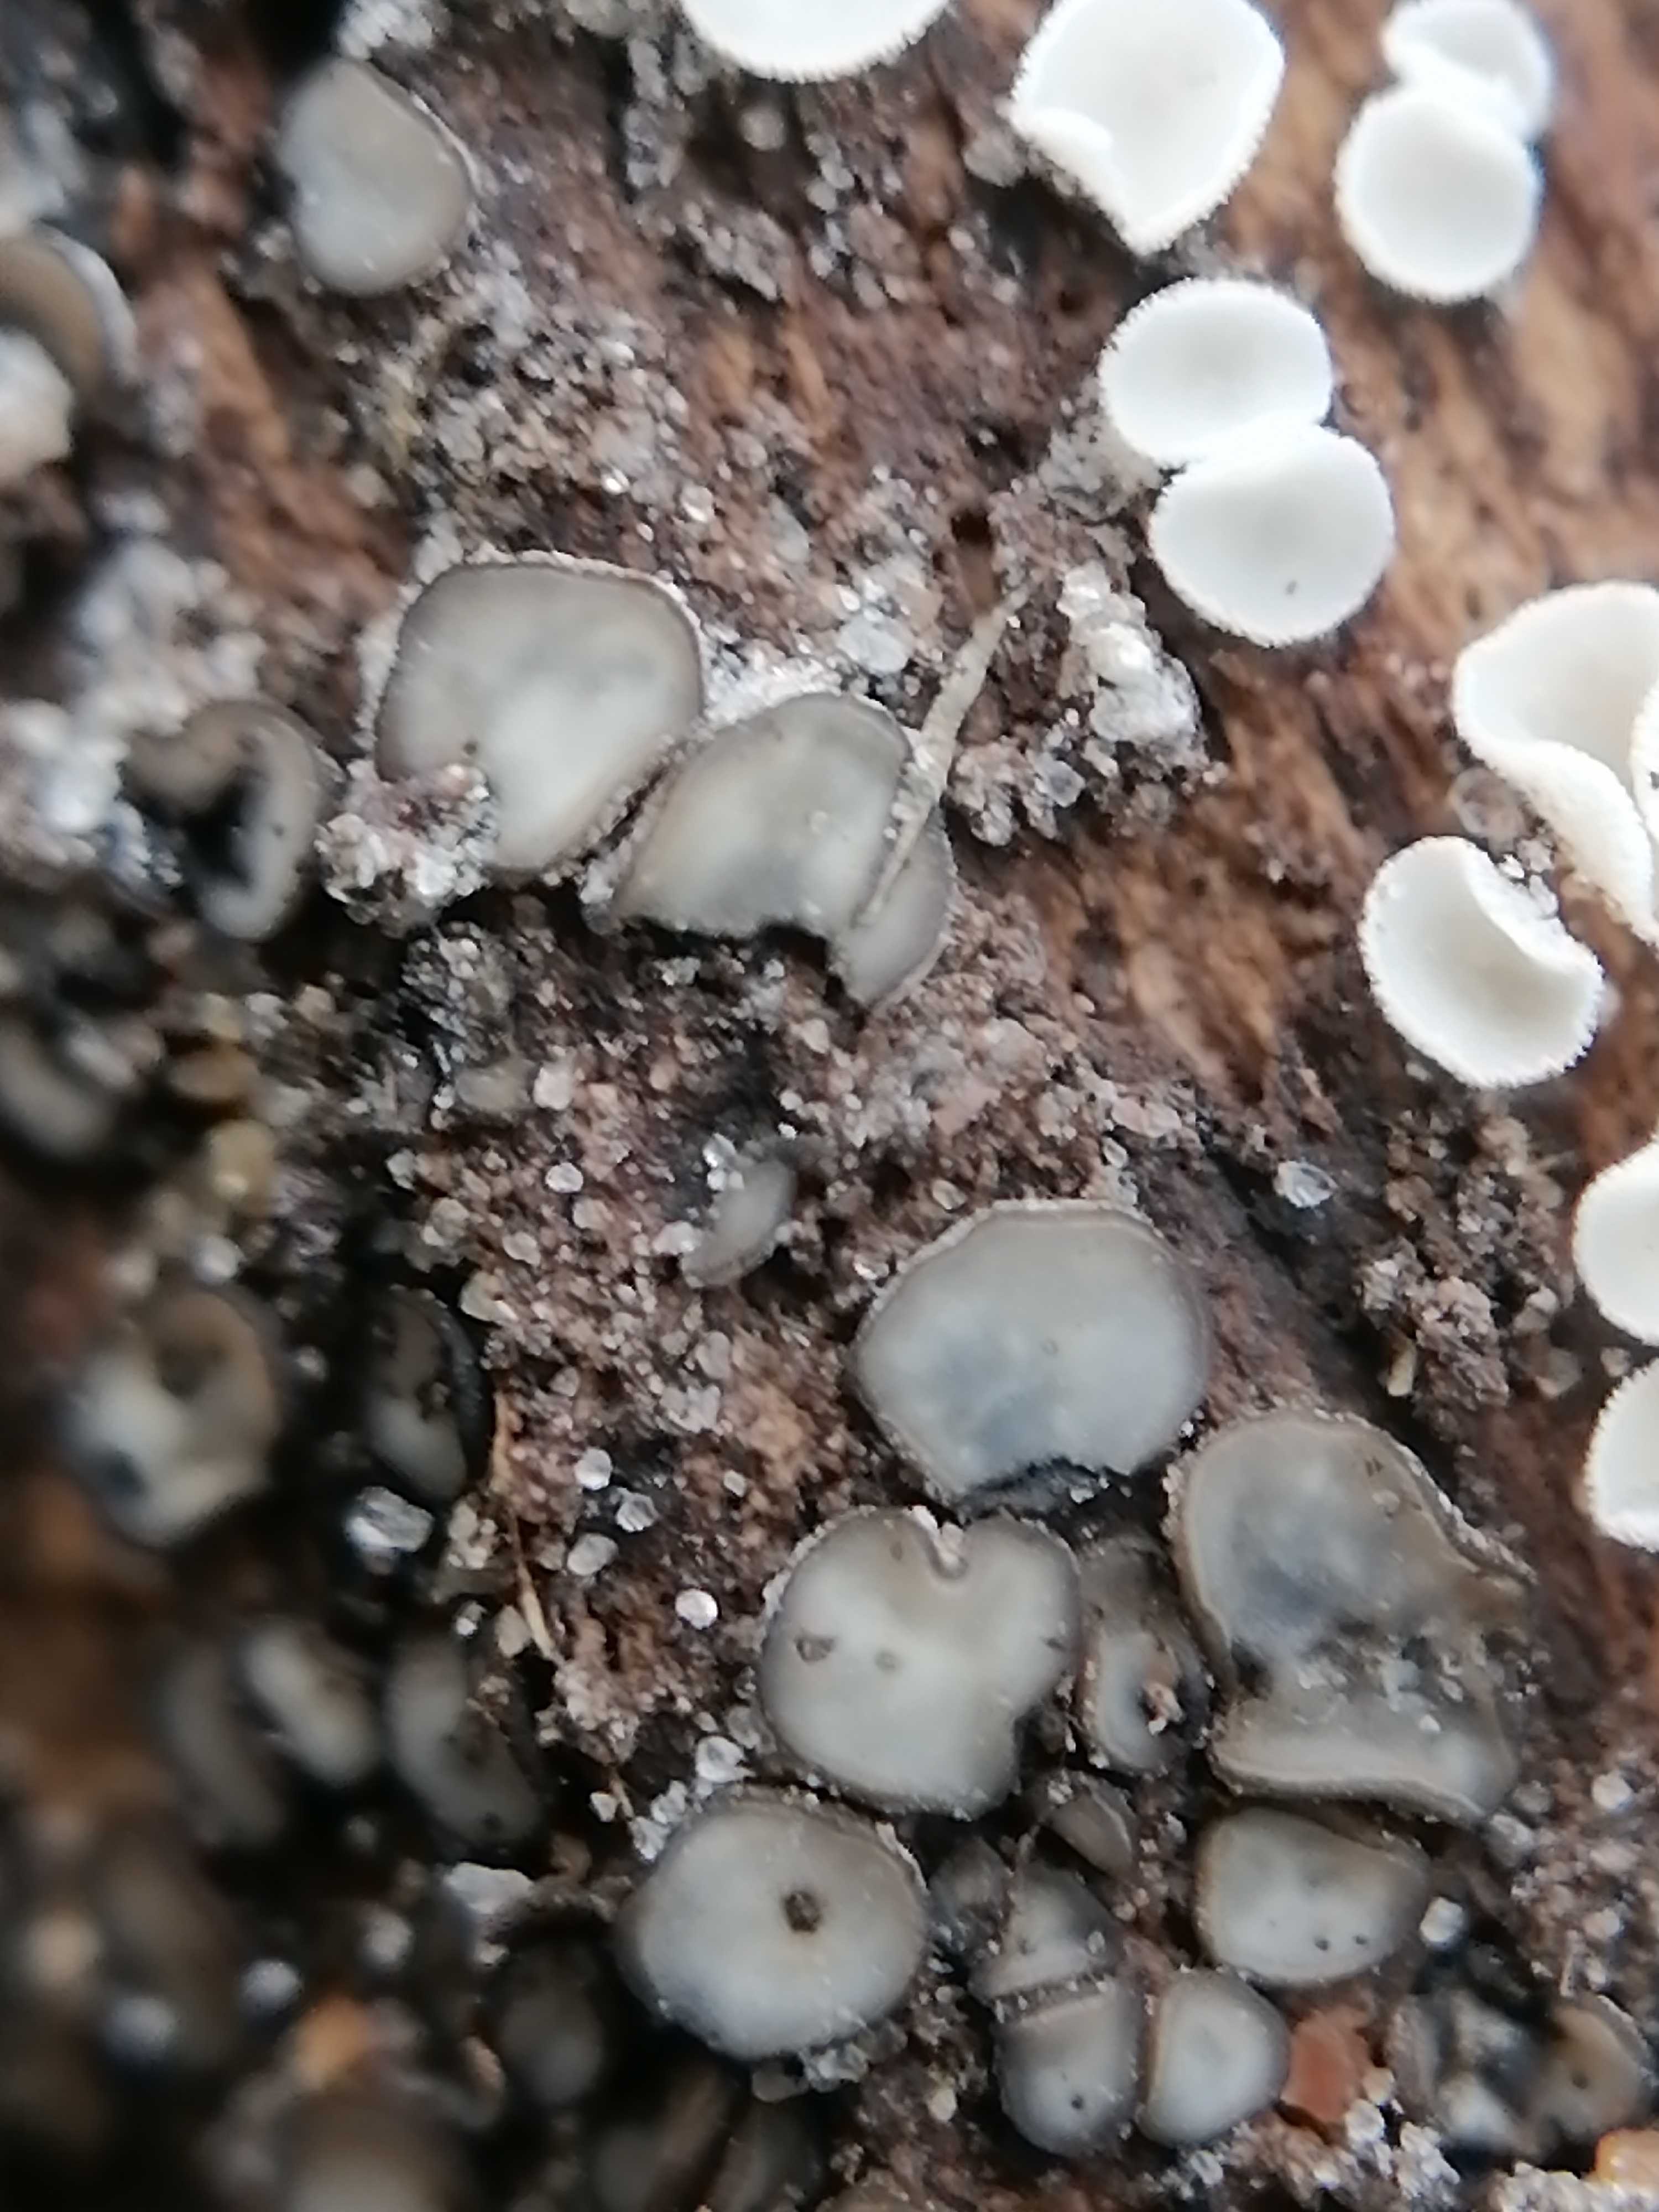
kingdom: Fungi
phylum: Ascomycota
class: Leotiomycetes
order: Helotiales
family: Mollisiaceae
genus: Mollisia
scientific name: Mollisia
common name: gråskive
